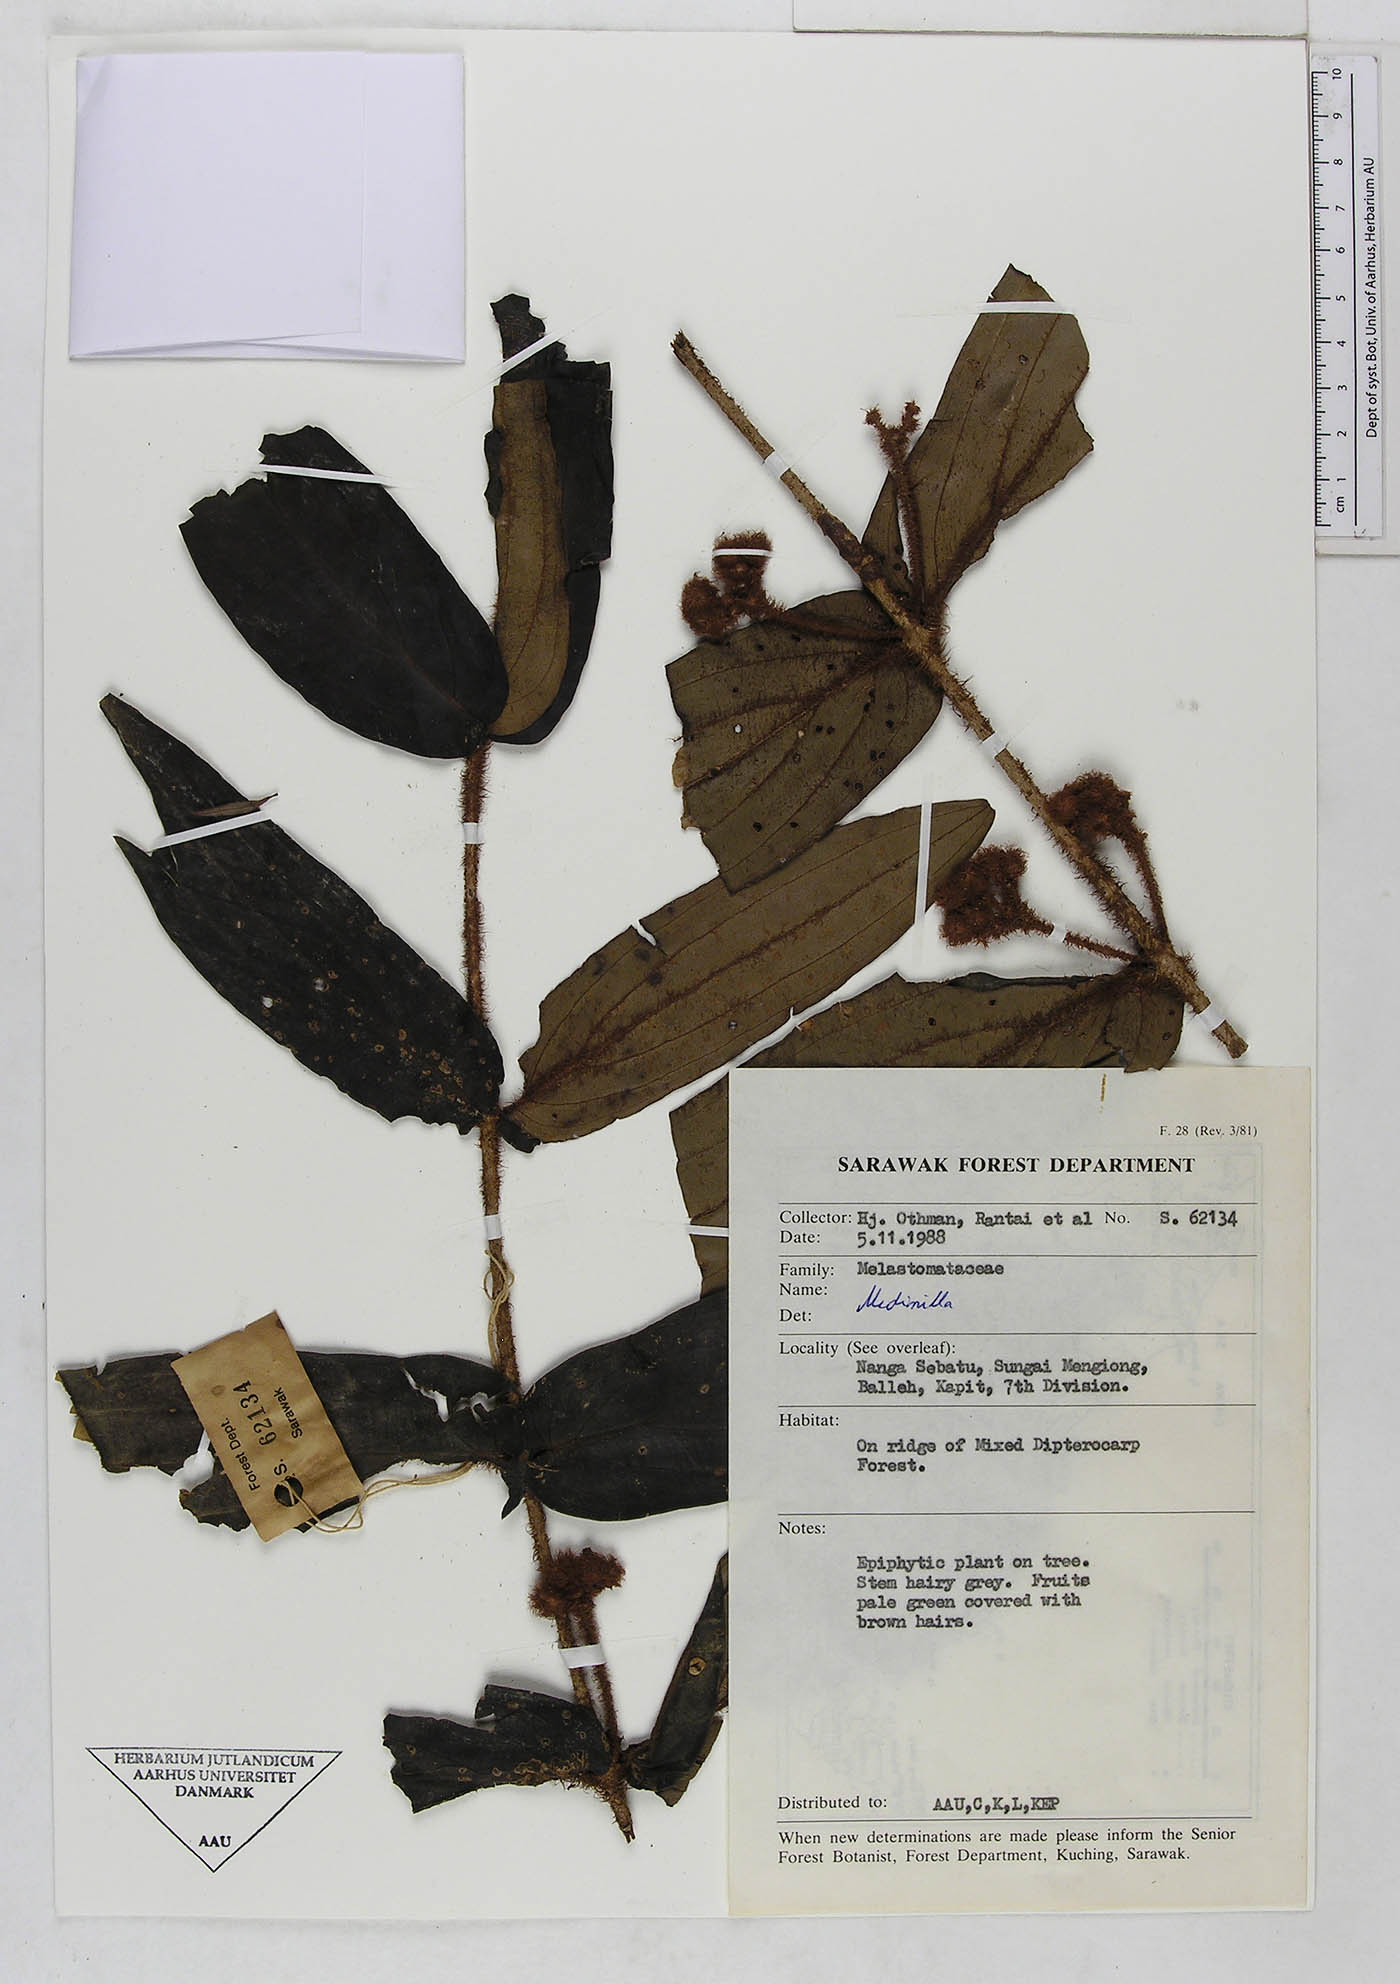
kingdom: Plantae
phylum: Tracheophyta
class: Magnoliopsida
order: Myrtales
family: Melastomataceae
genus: Medinilla
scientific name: Medinilla
